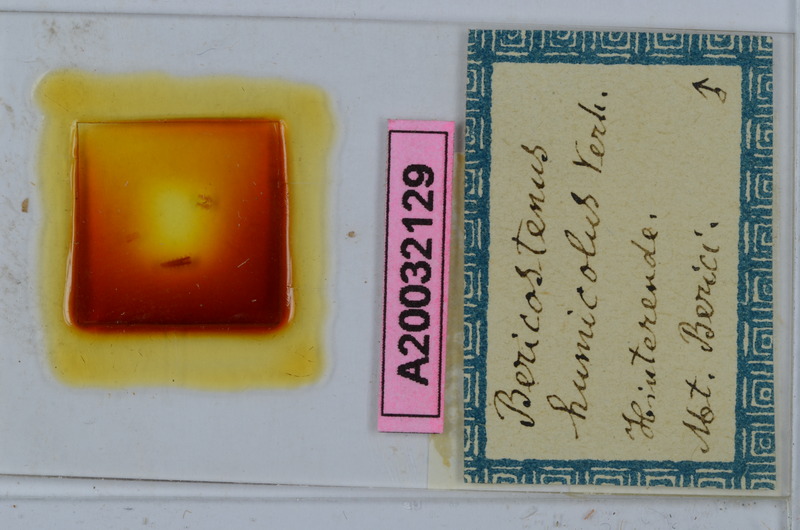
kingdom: Animalia
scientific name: Animalia
